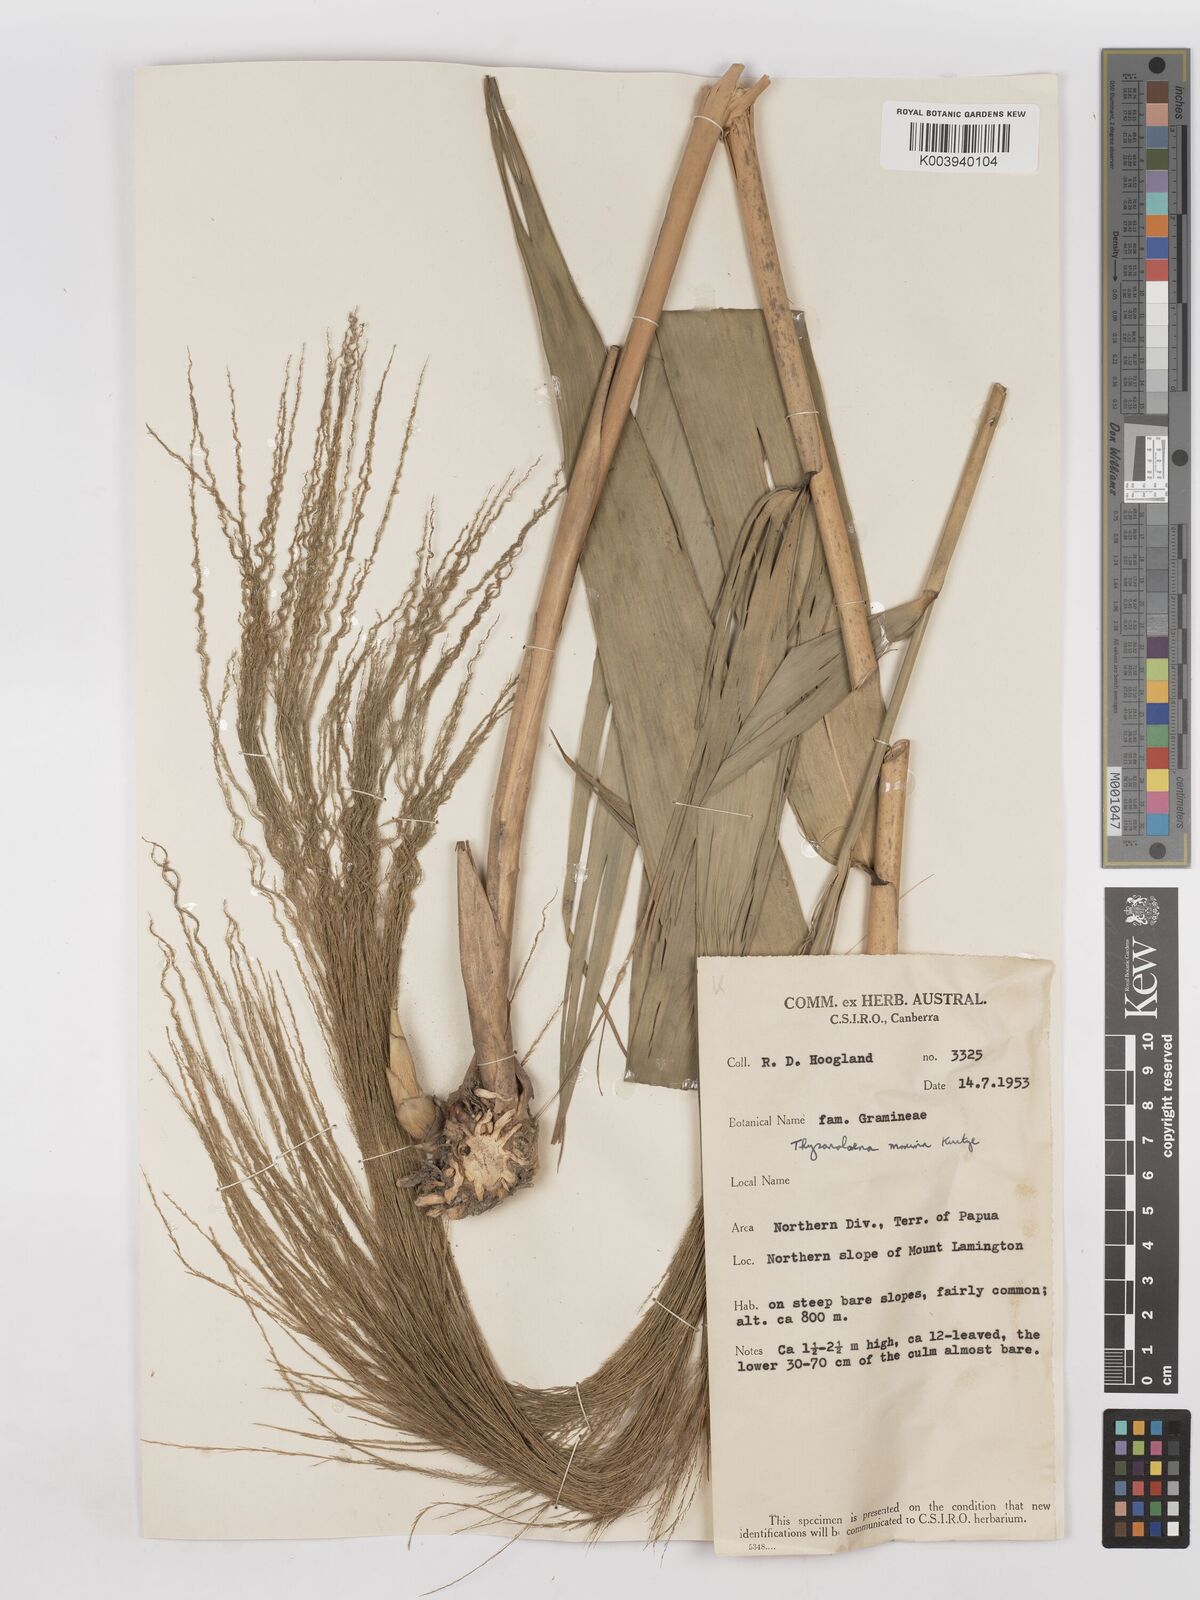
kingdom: Plantae
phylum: Tracheophyta
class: Liliopsida
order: Poales
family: Poaceae
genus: Thysanolaena
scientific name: Thysanolaena latifolia
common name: Tiger grass
